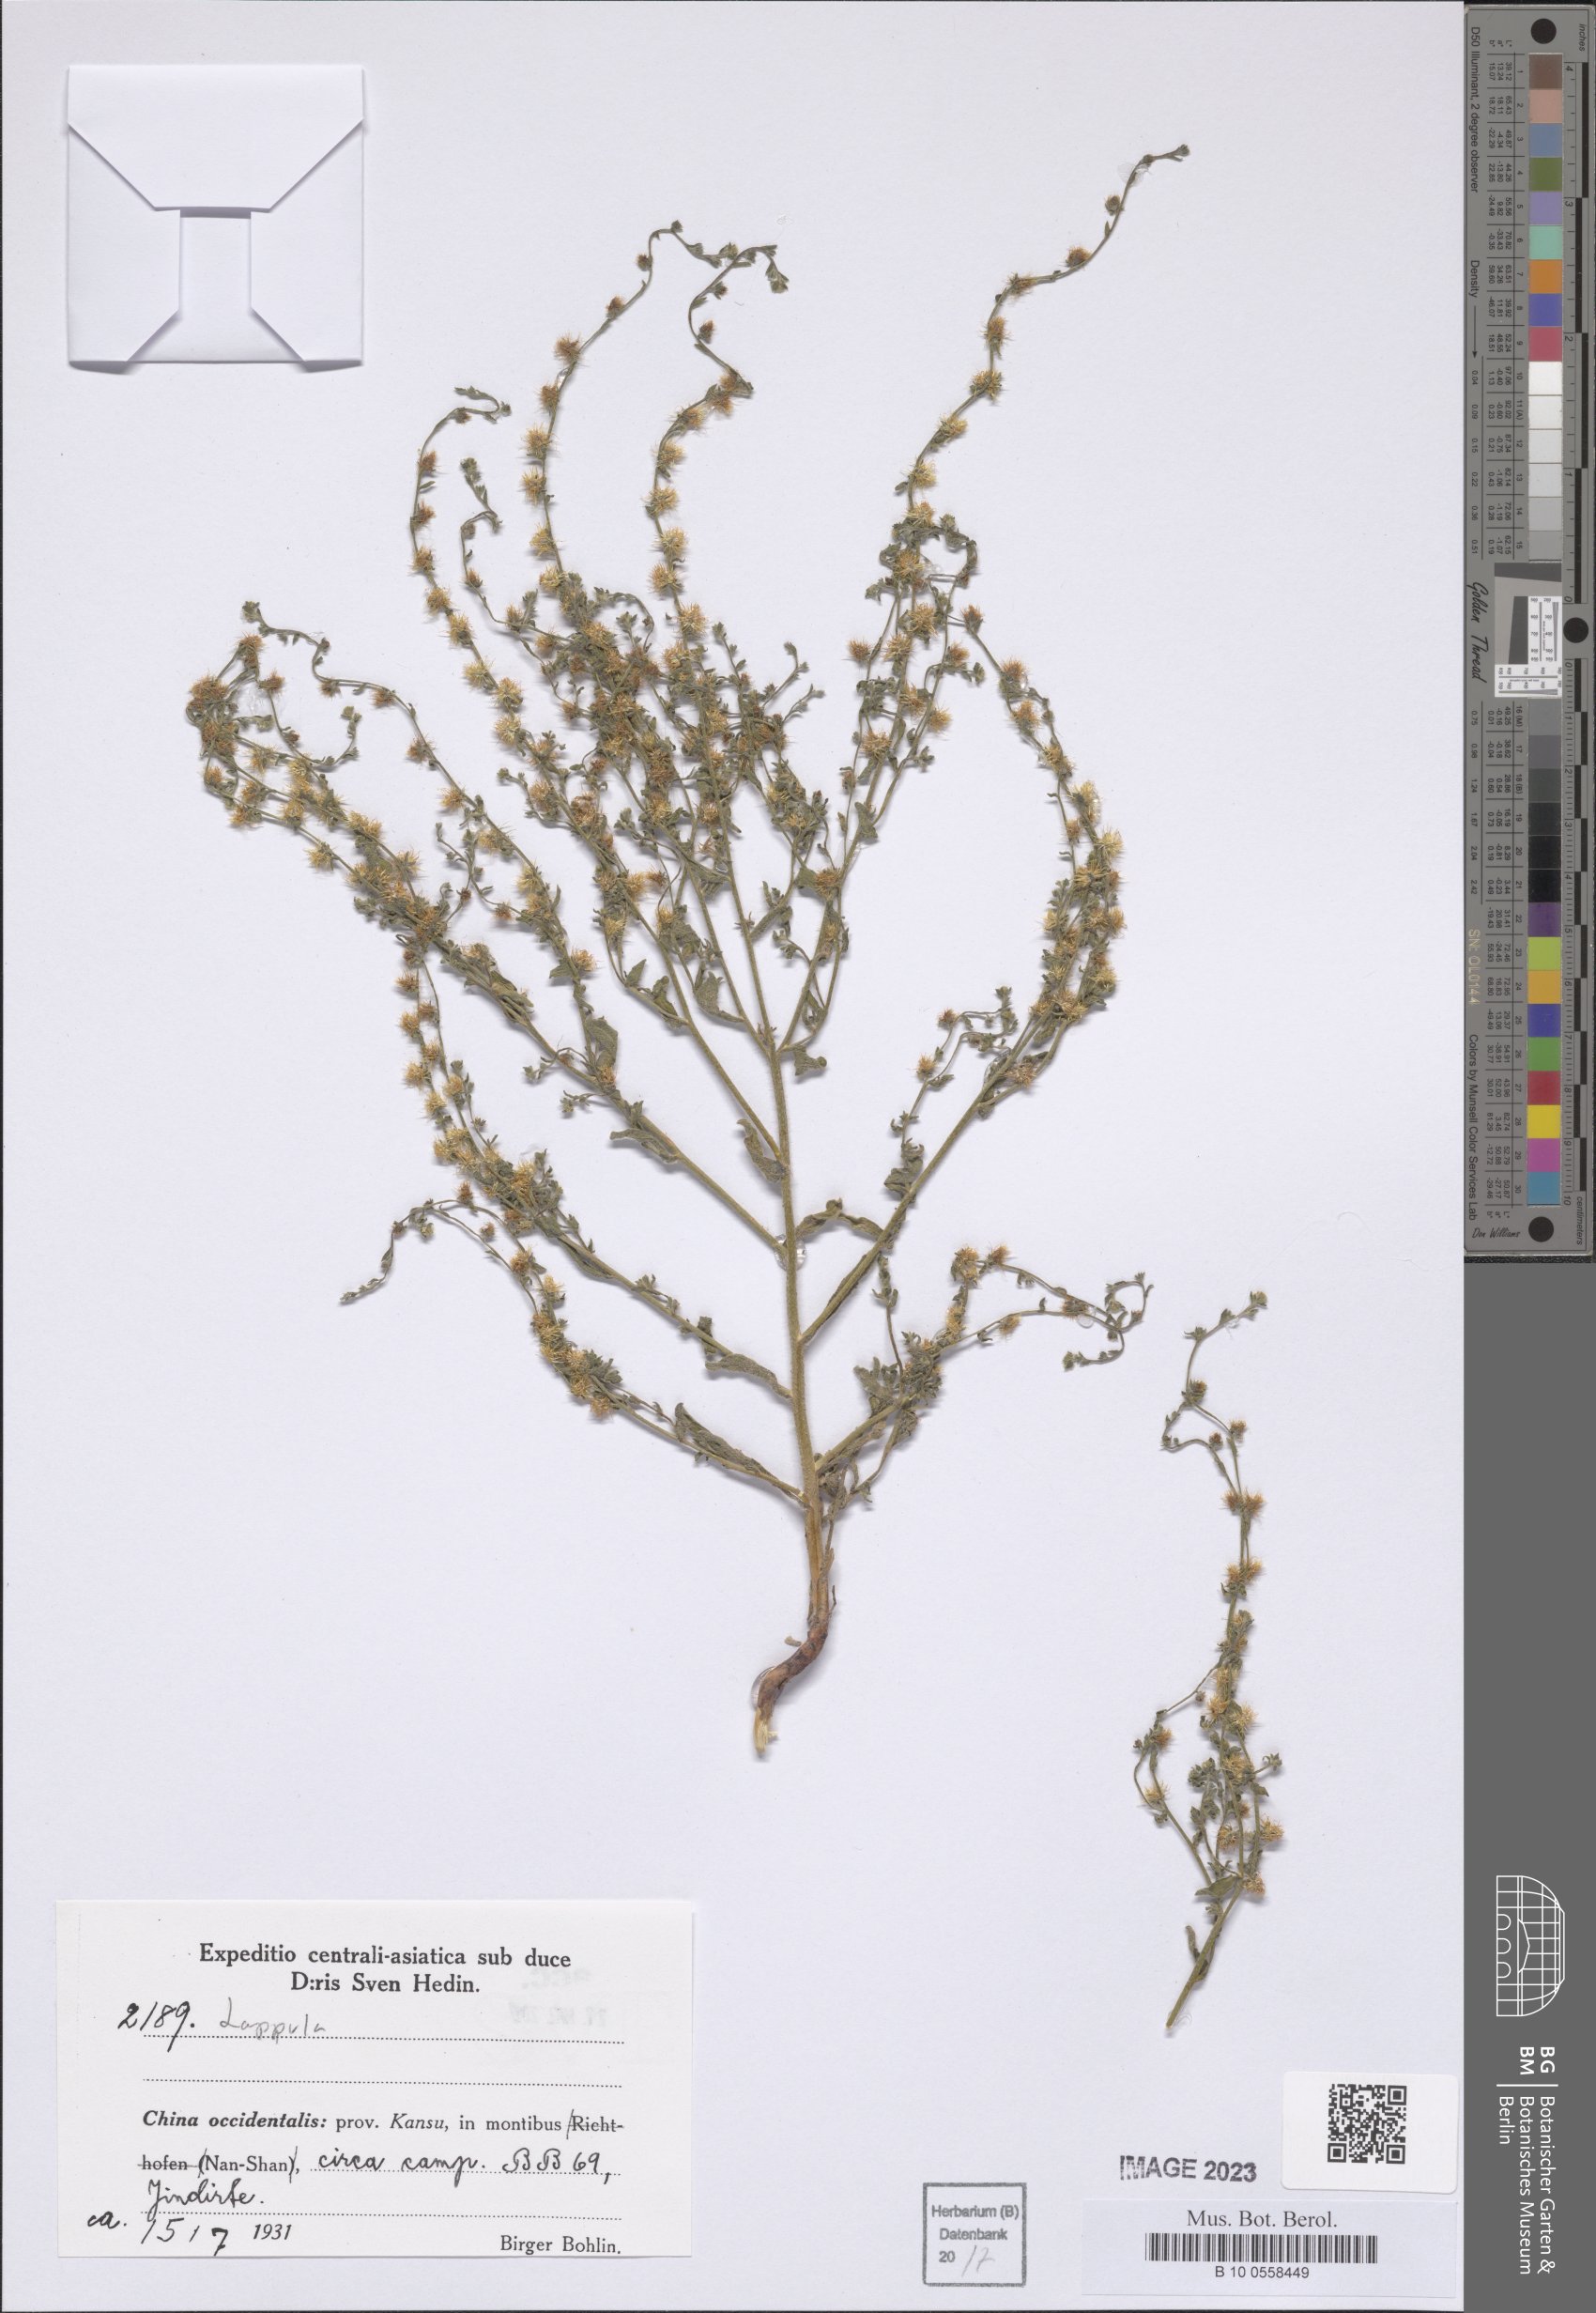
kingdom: Plantae
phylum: Tracheophyta
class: Magnoliopsida
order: Boraginales
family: Boraginaceae
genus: Lappula
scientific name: Lappula
